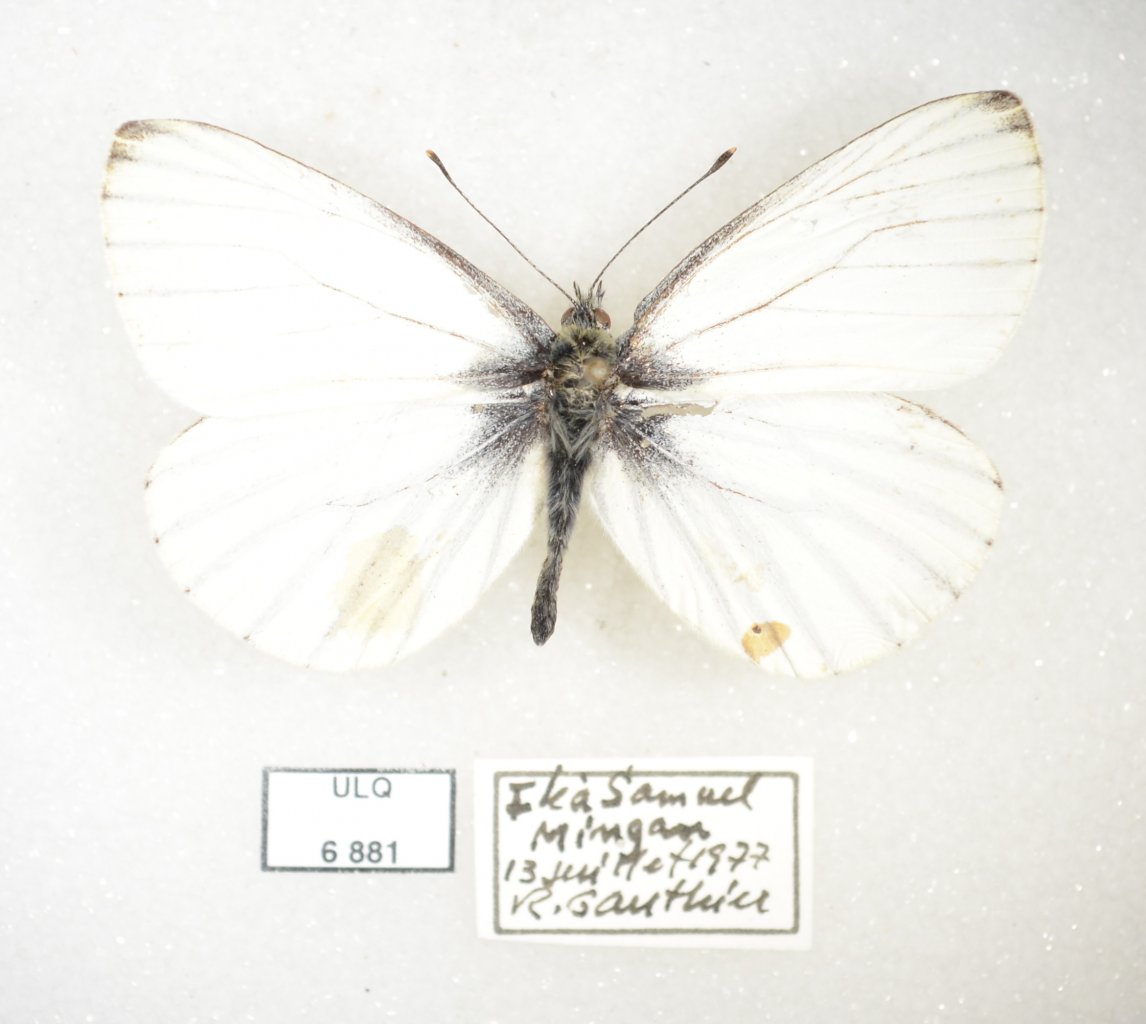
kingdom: Animalia
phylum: Arthropoda
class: Insecta
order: Lepidoptera
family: Pieridae
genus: Pieris
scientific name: Pieris oleracea
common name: Mustard White
